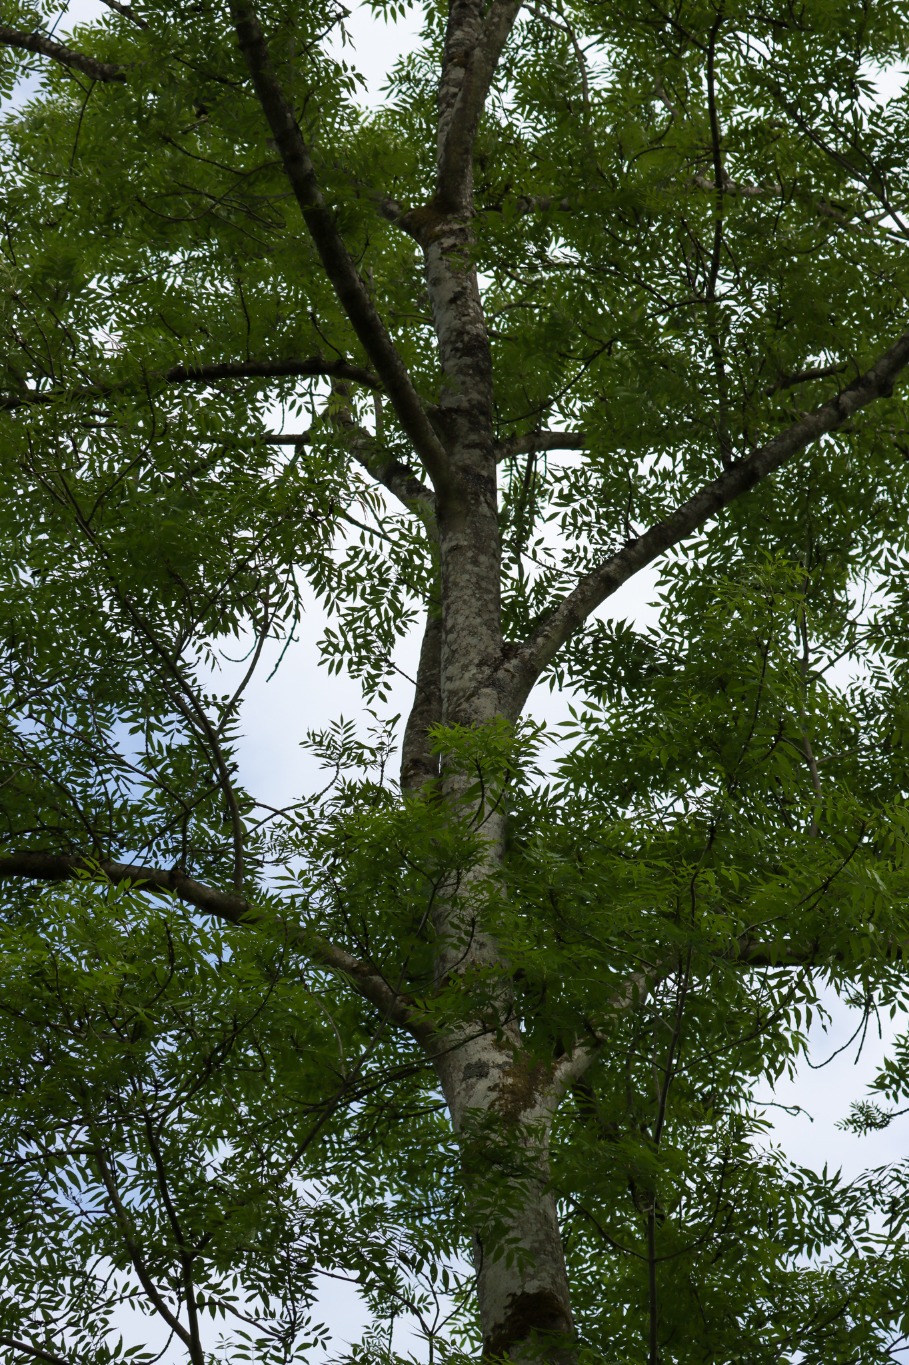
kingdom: Plantae
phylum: Tracheophyta
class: Magnoliopsida
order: Lamiales
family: Oleaceae
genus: Fraxinus
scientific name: Fraxinus excelsior
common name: Ask
